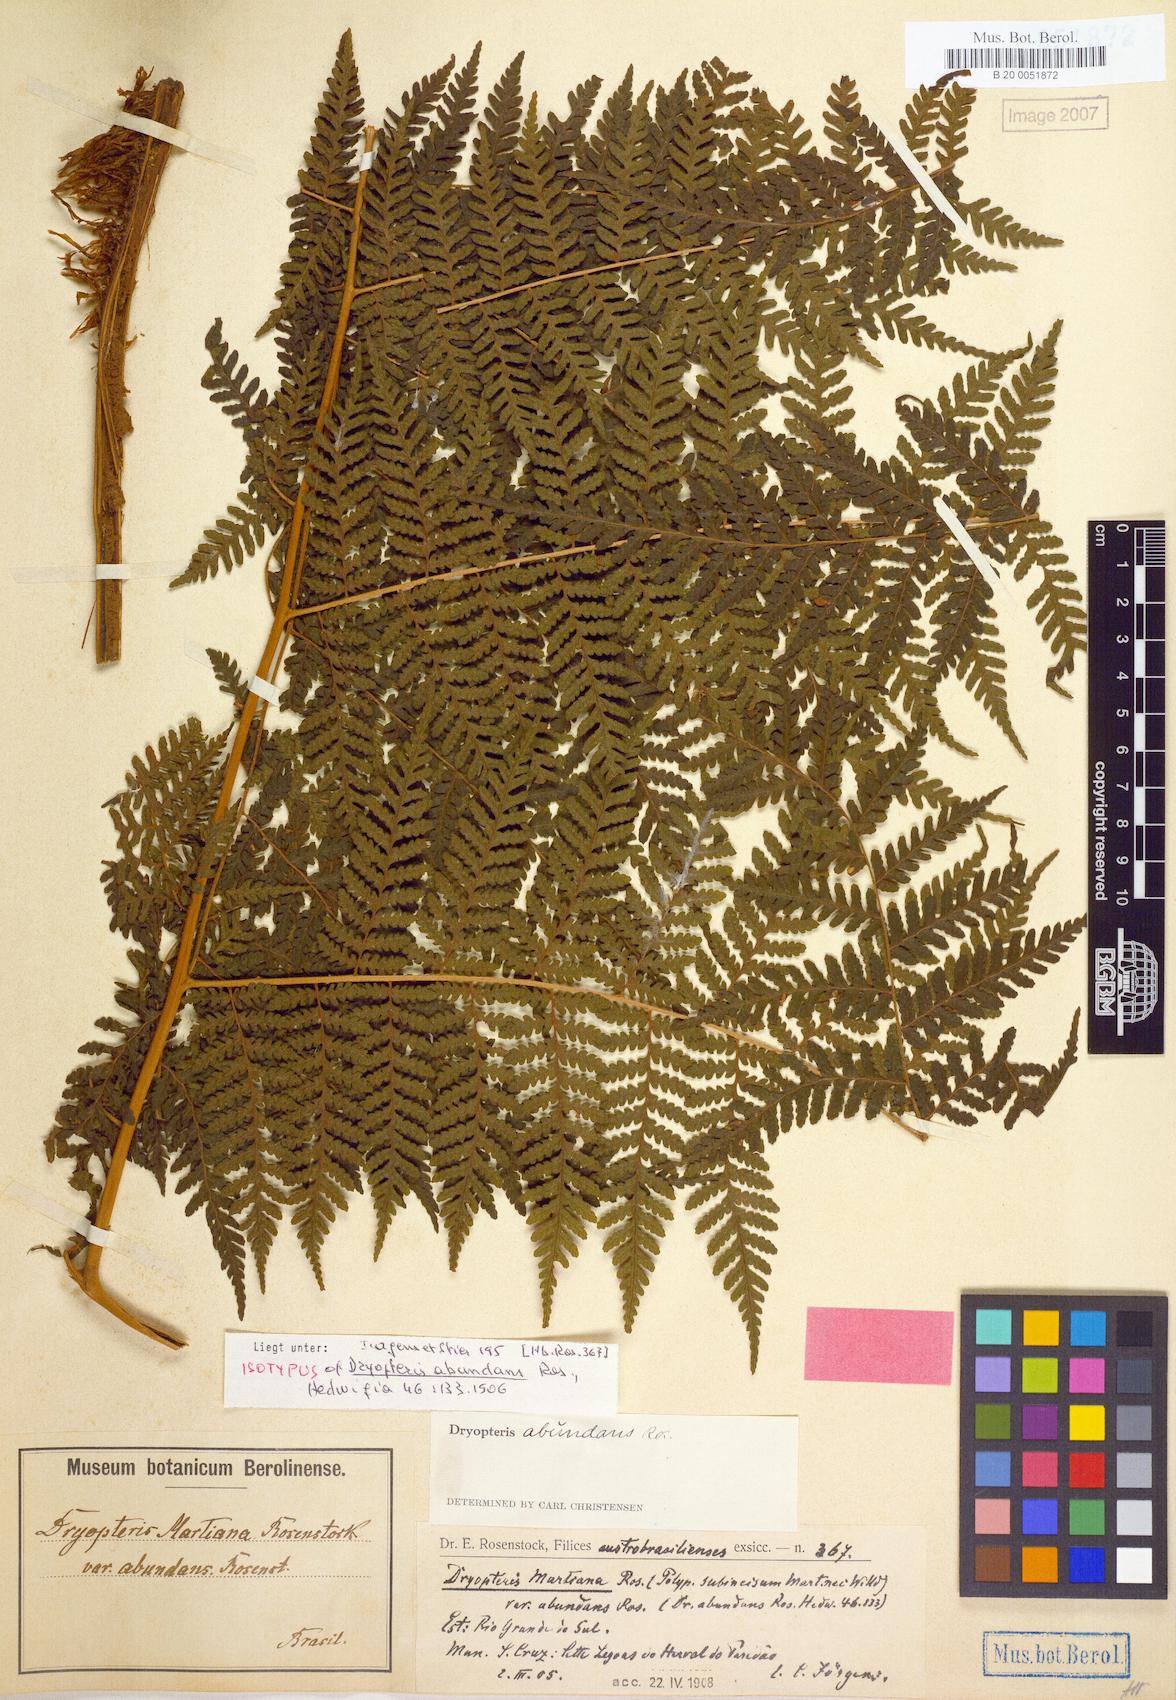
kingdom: Plantae
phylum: Tracheophyta
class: Polypodiopsida
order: Polypodiales
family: Dryopteridaceae
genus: Megalastrum
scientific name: Megalastrum abundans
